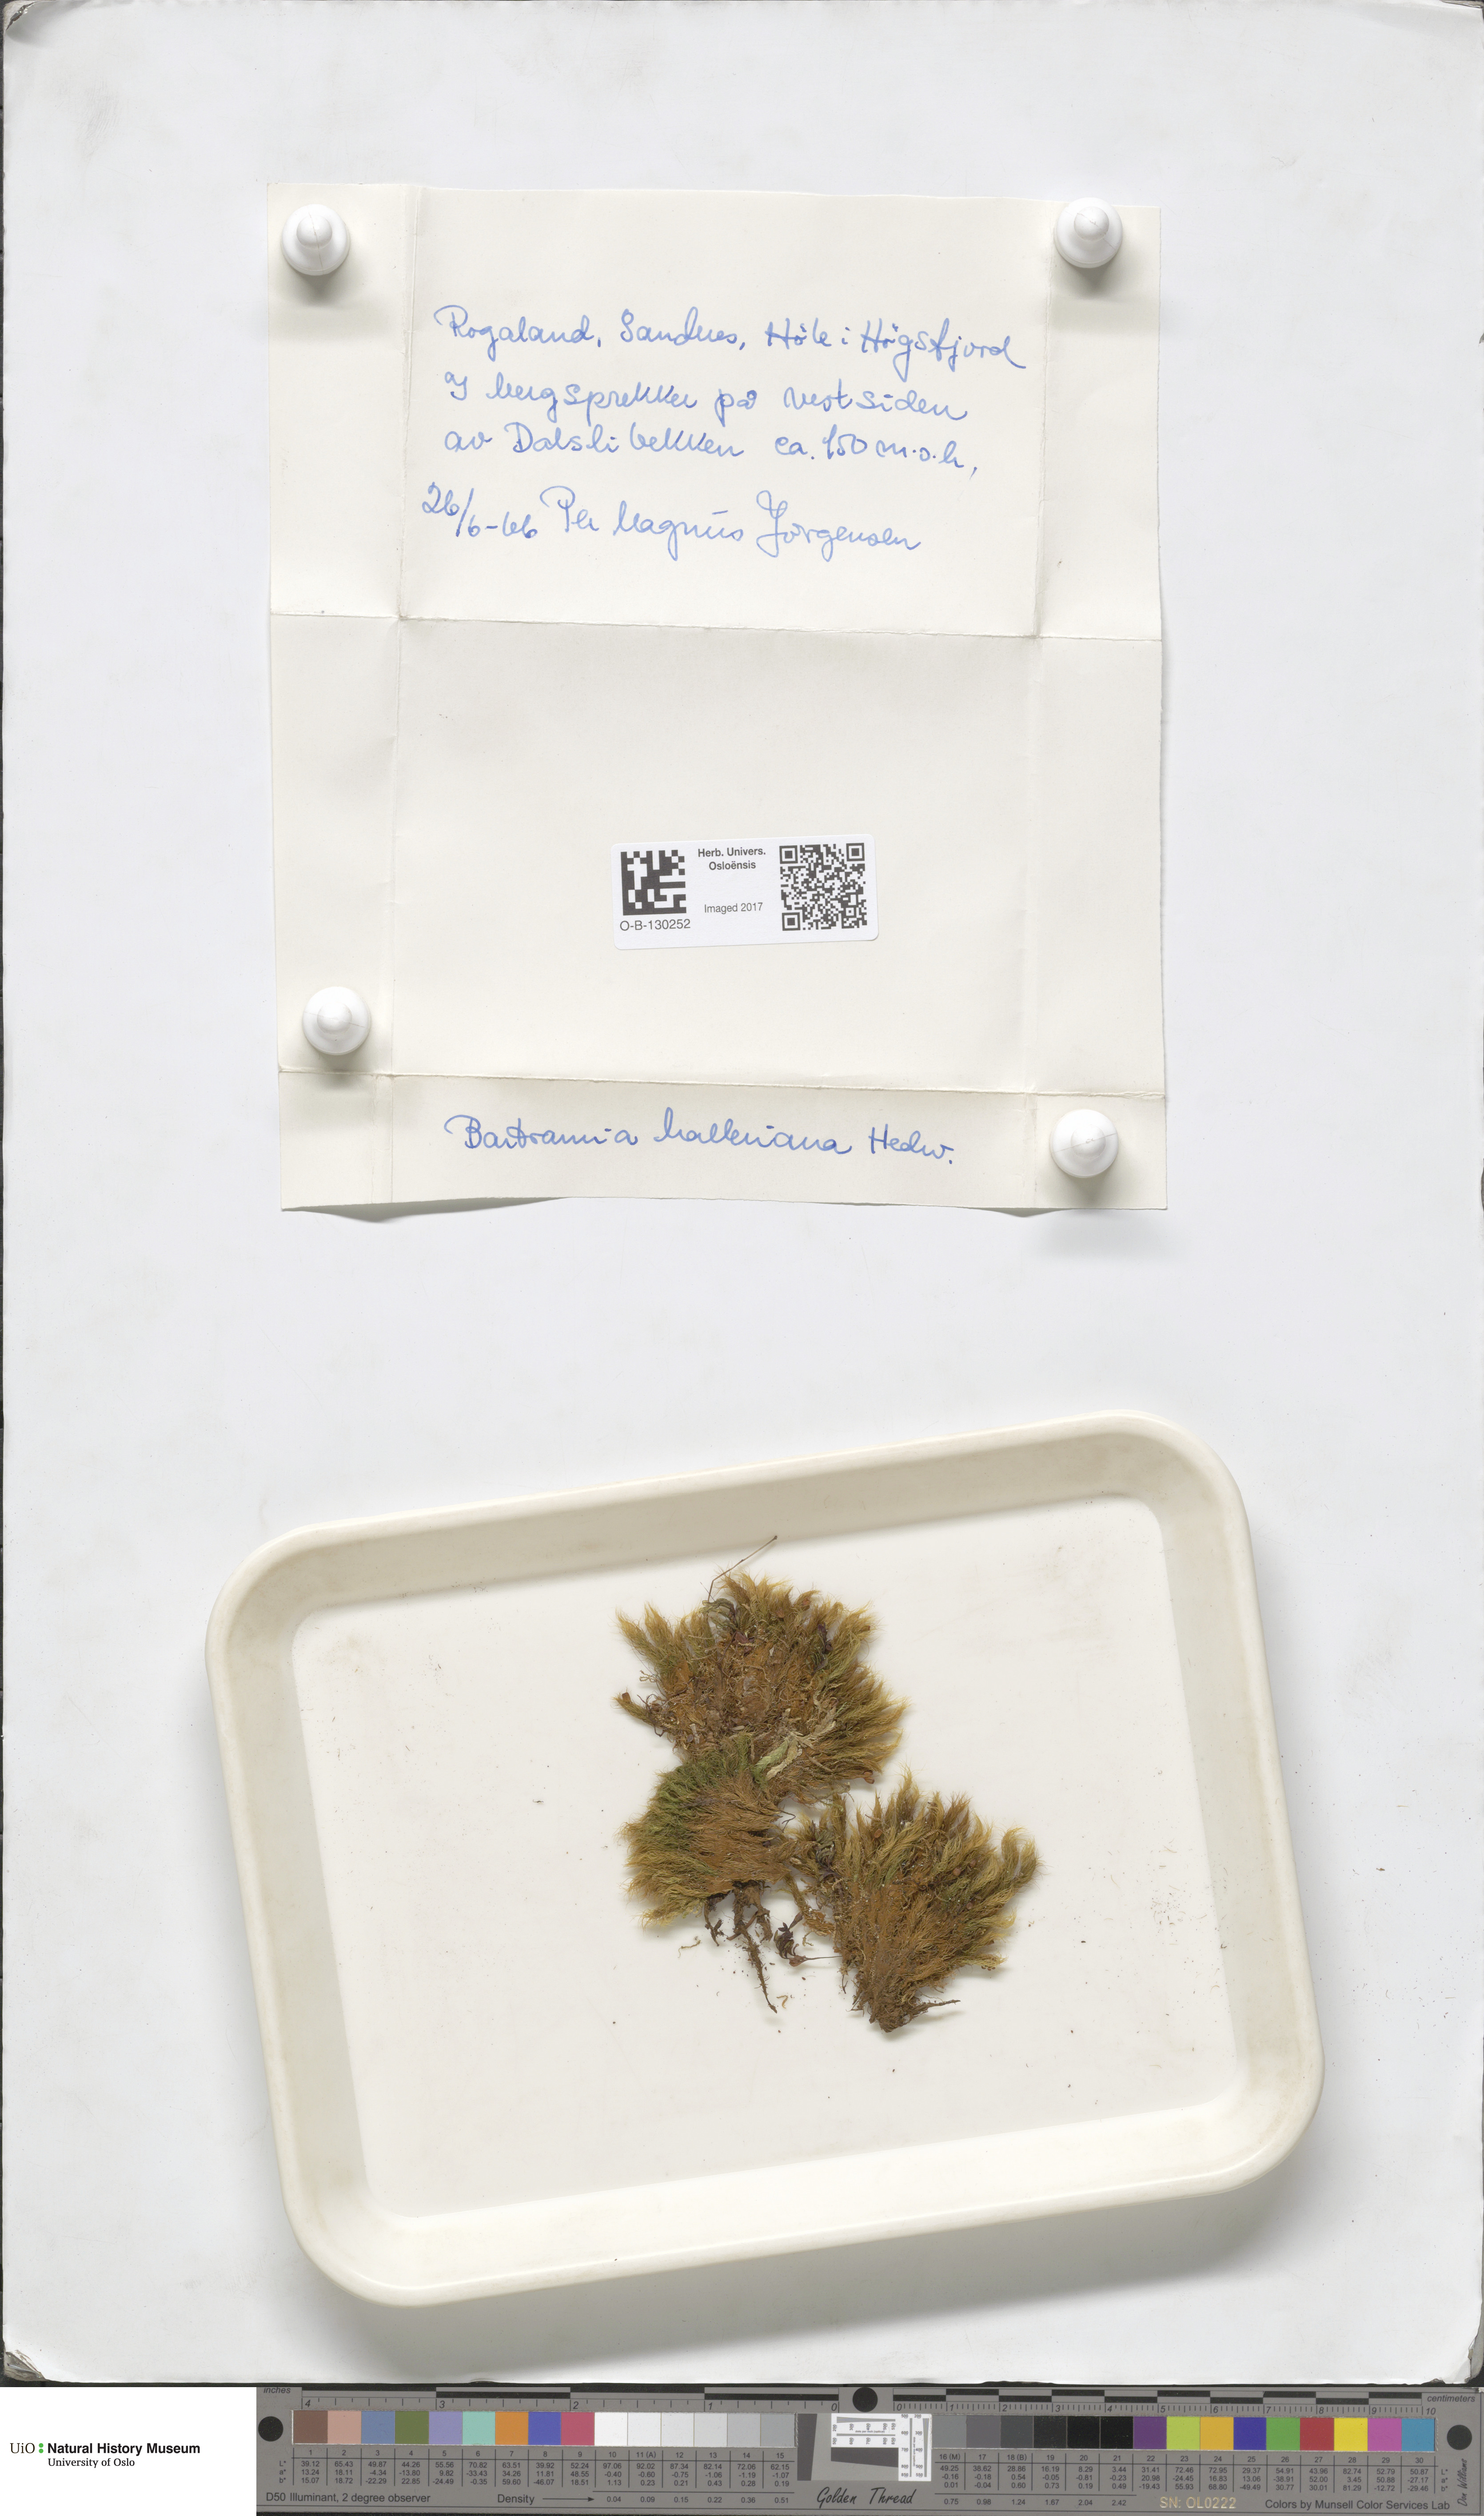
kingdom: Plantae
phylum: Bryophyta
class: Bryopsida
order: Bartramiales
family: Bartramiaceae
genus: Bartramia
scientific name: Bartramia halleriana
